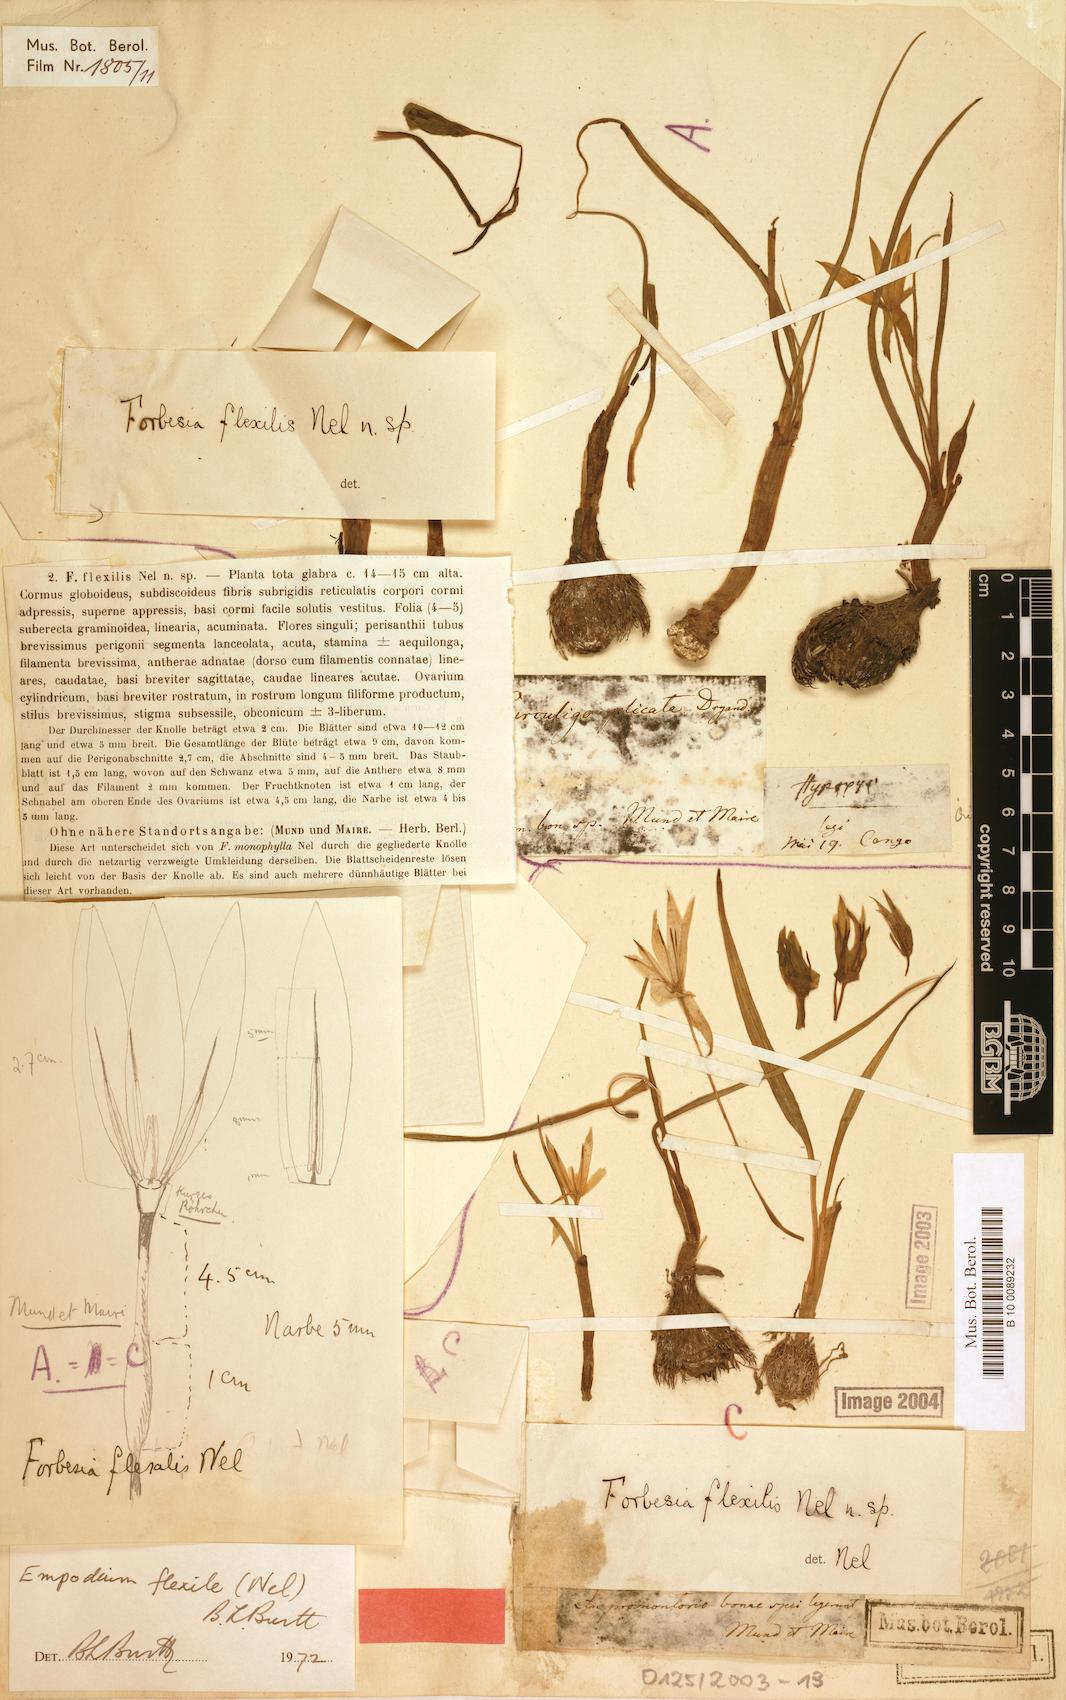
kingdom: Plantae
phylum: Tracheophyta
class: Liliopsida
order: Asparagales
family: Hypoxidaceae
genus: Empodium
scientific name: Empodium flexile
